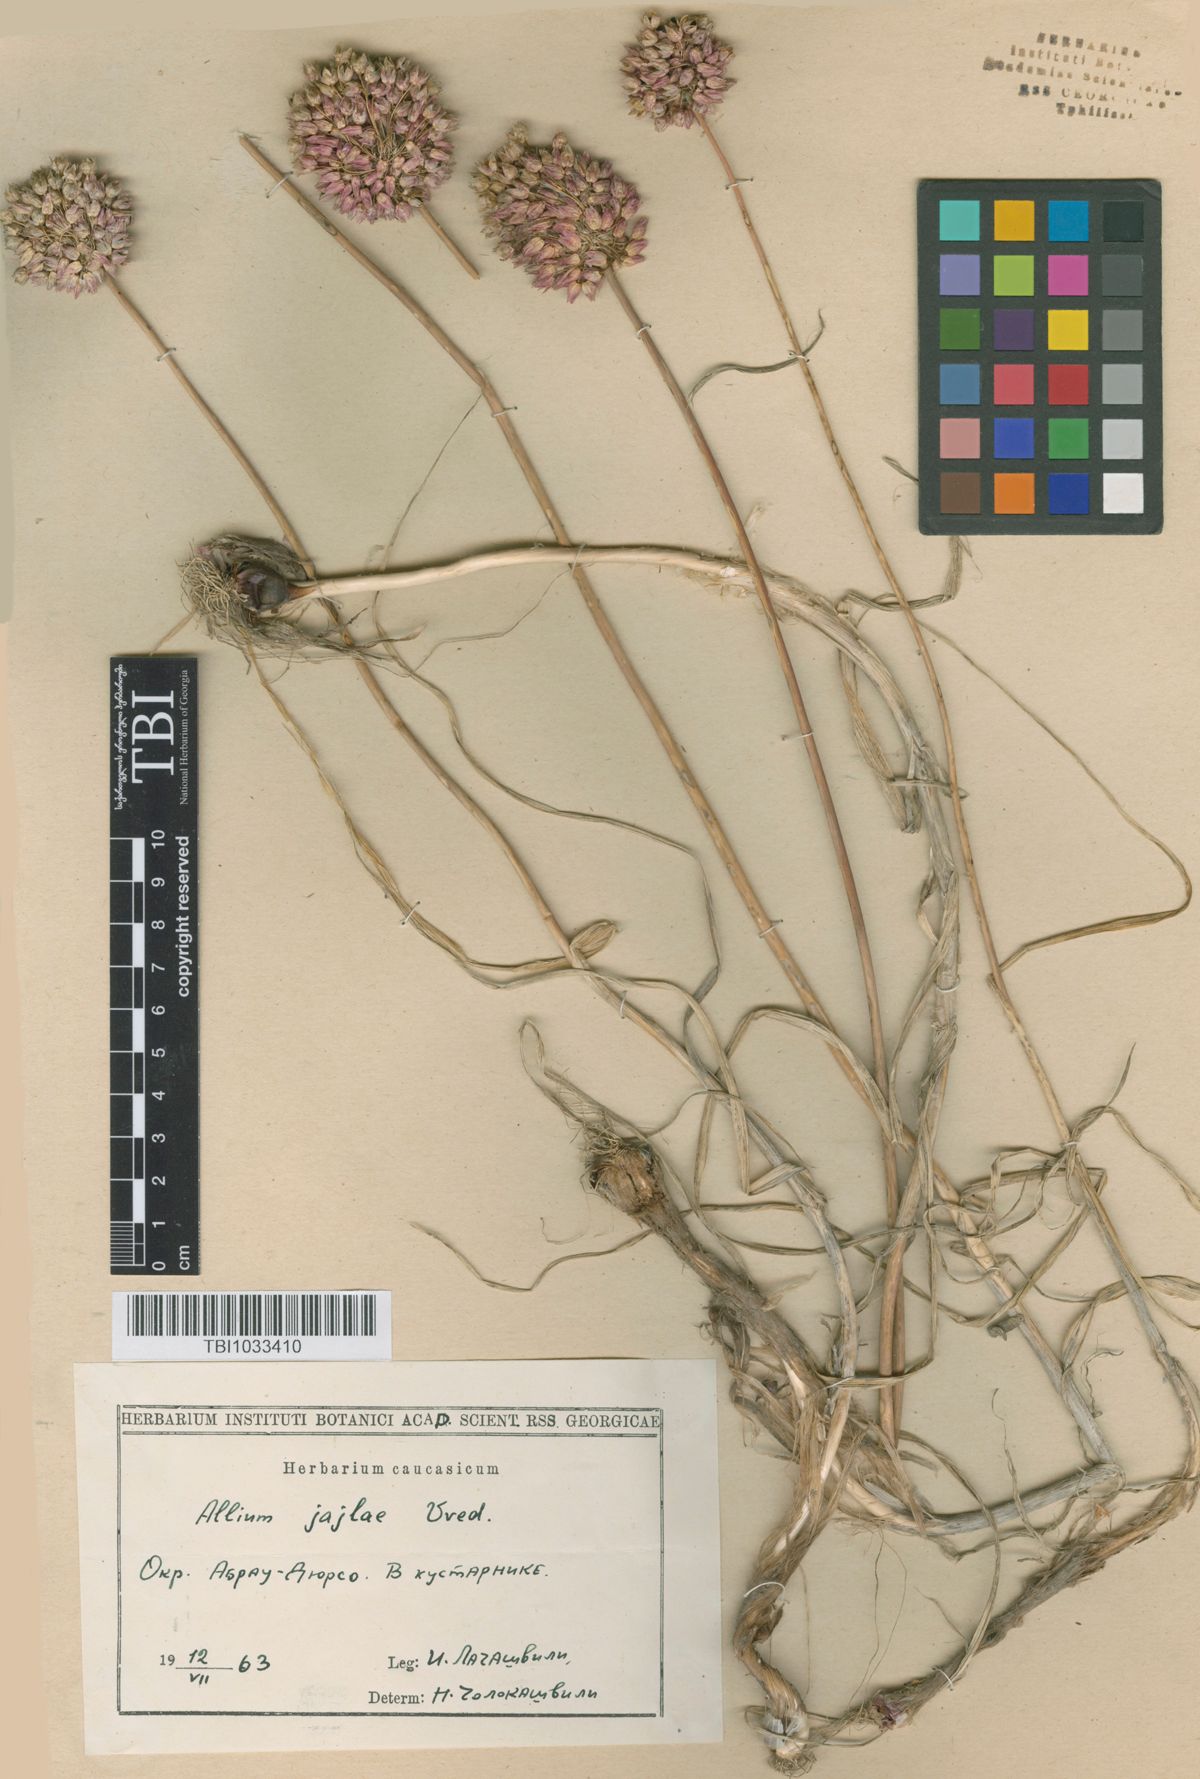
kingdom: Plantae
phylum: Tracheophyta
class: Liliopsida
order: Asparagales
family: Amaryllidaceae
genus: Allium
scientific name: Allium rotundum
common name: Sand leek
